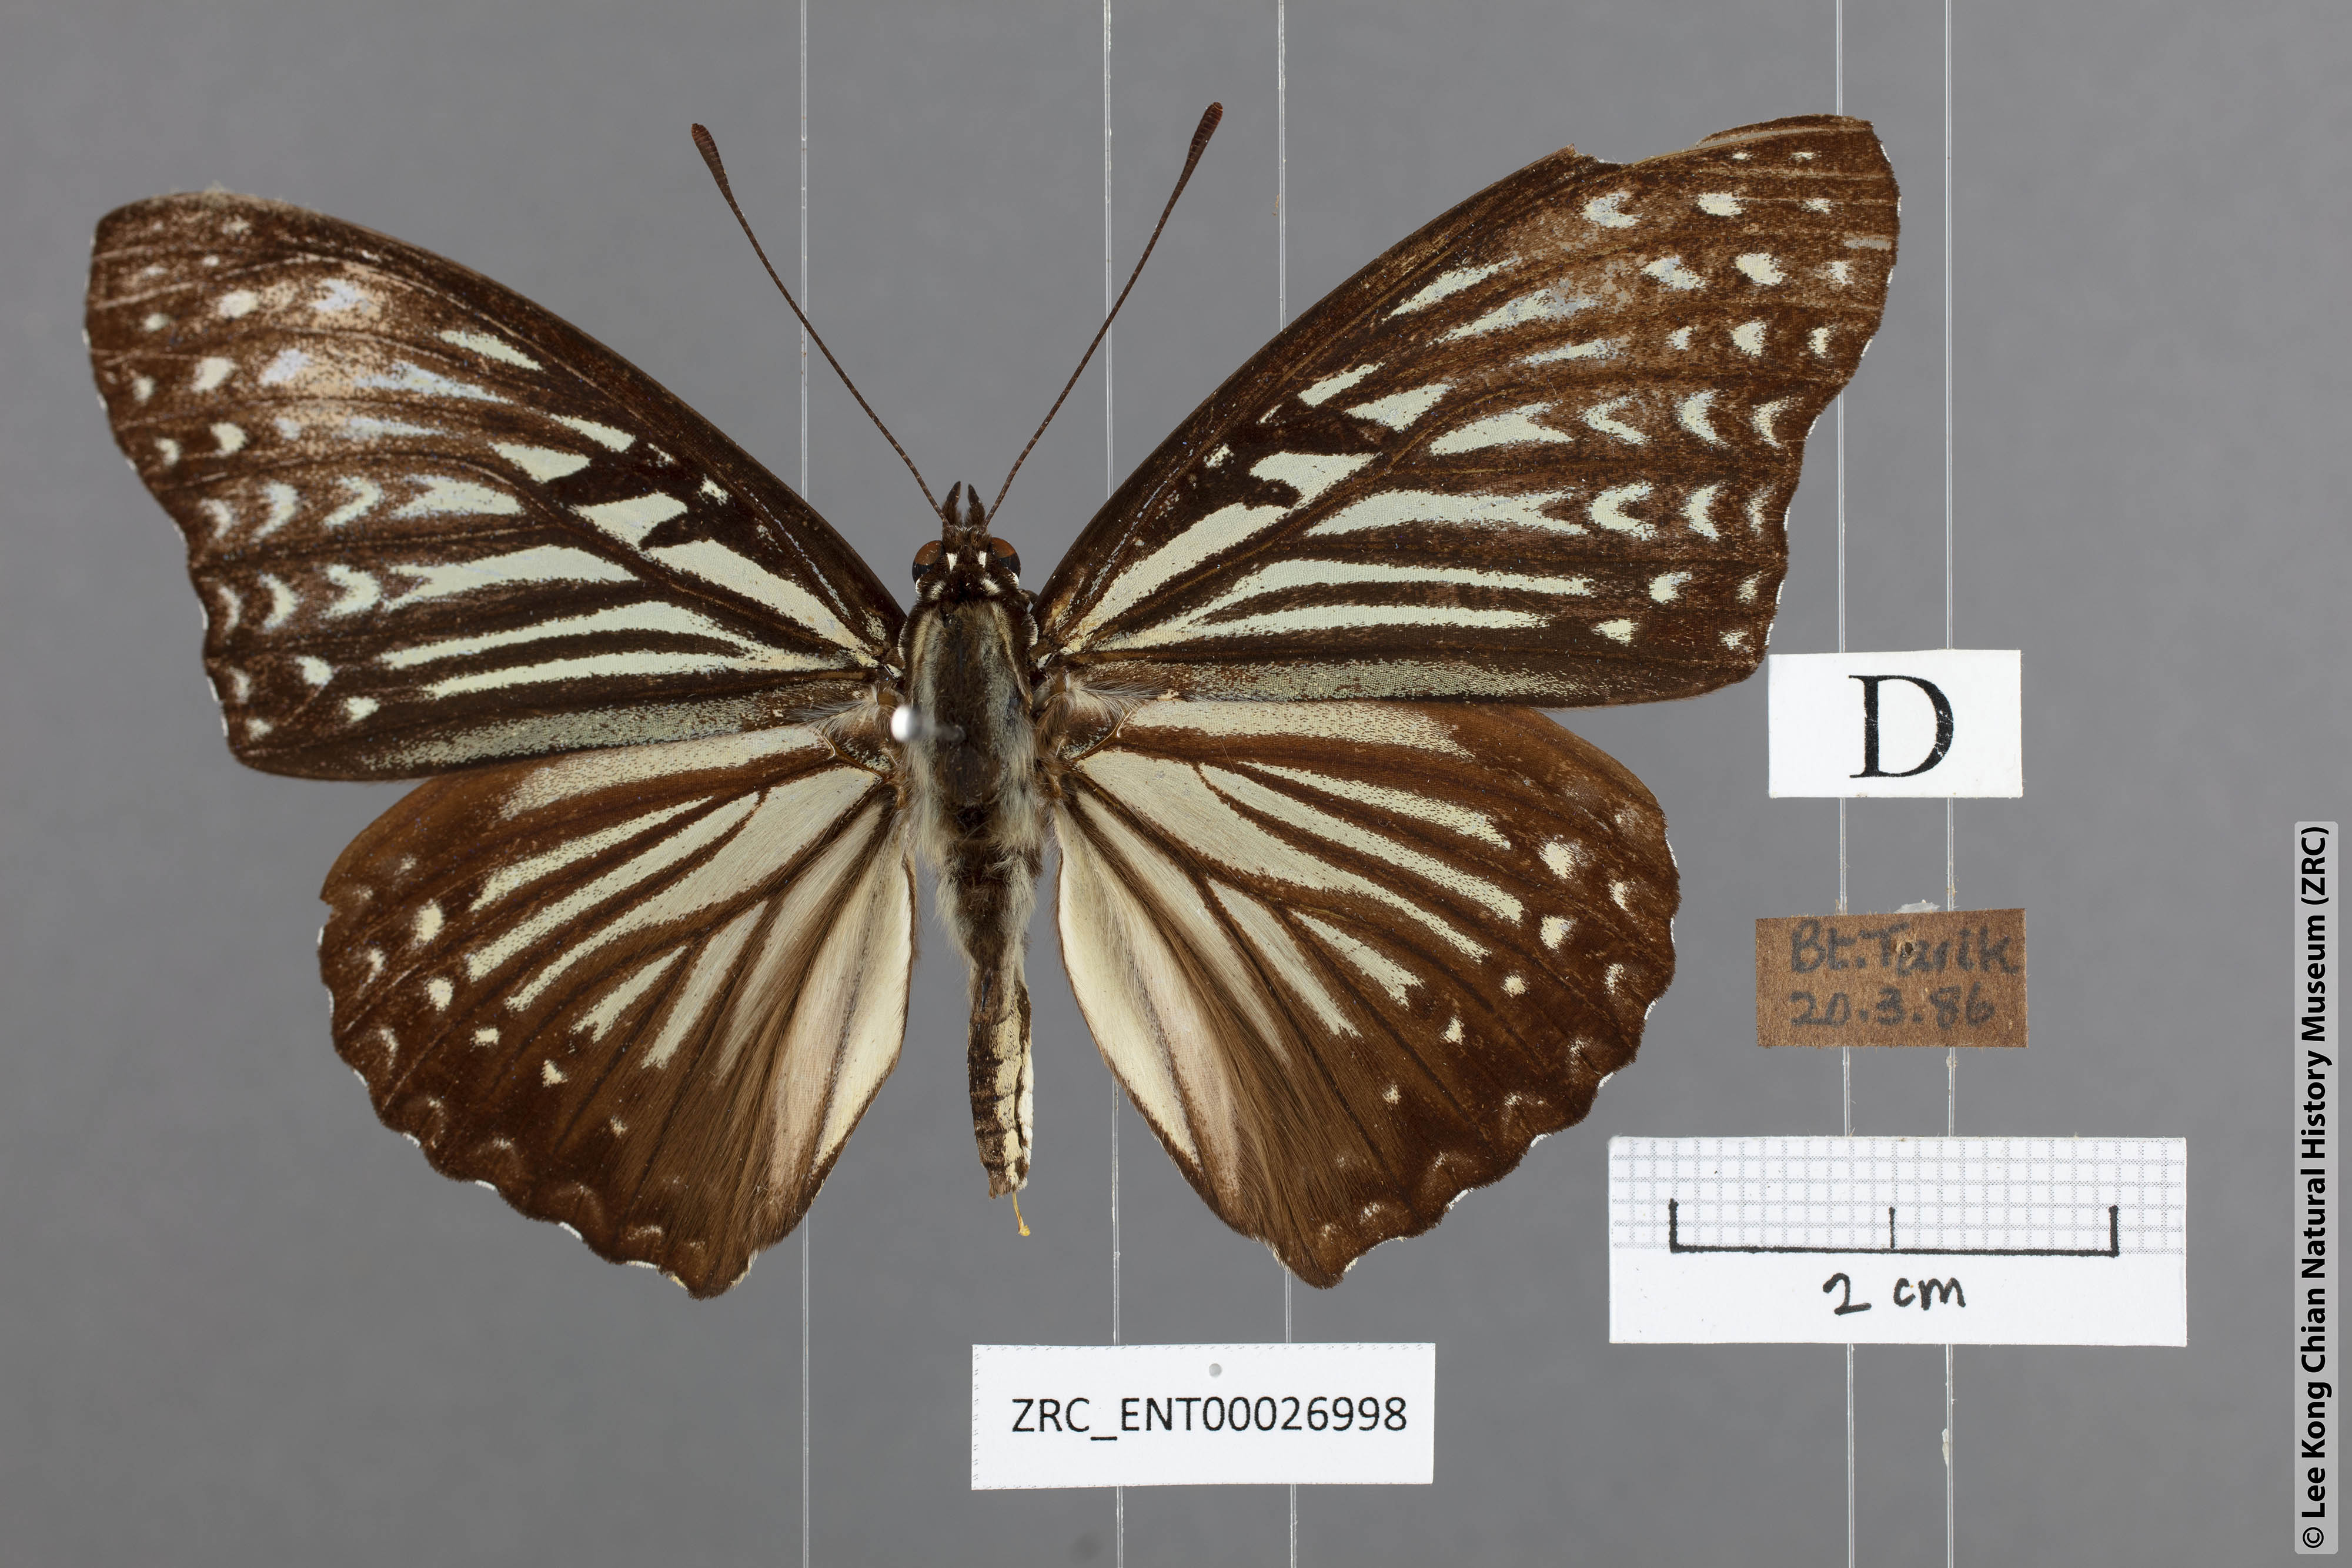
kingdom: Animalia
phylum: Arthropoda
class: Insecta
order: Lepidoptera
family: Nymphalidae
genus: Hestinalis
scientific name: Hestinalis mimetica
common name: Malayan circe
